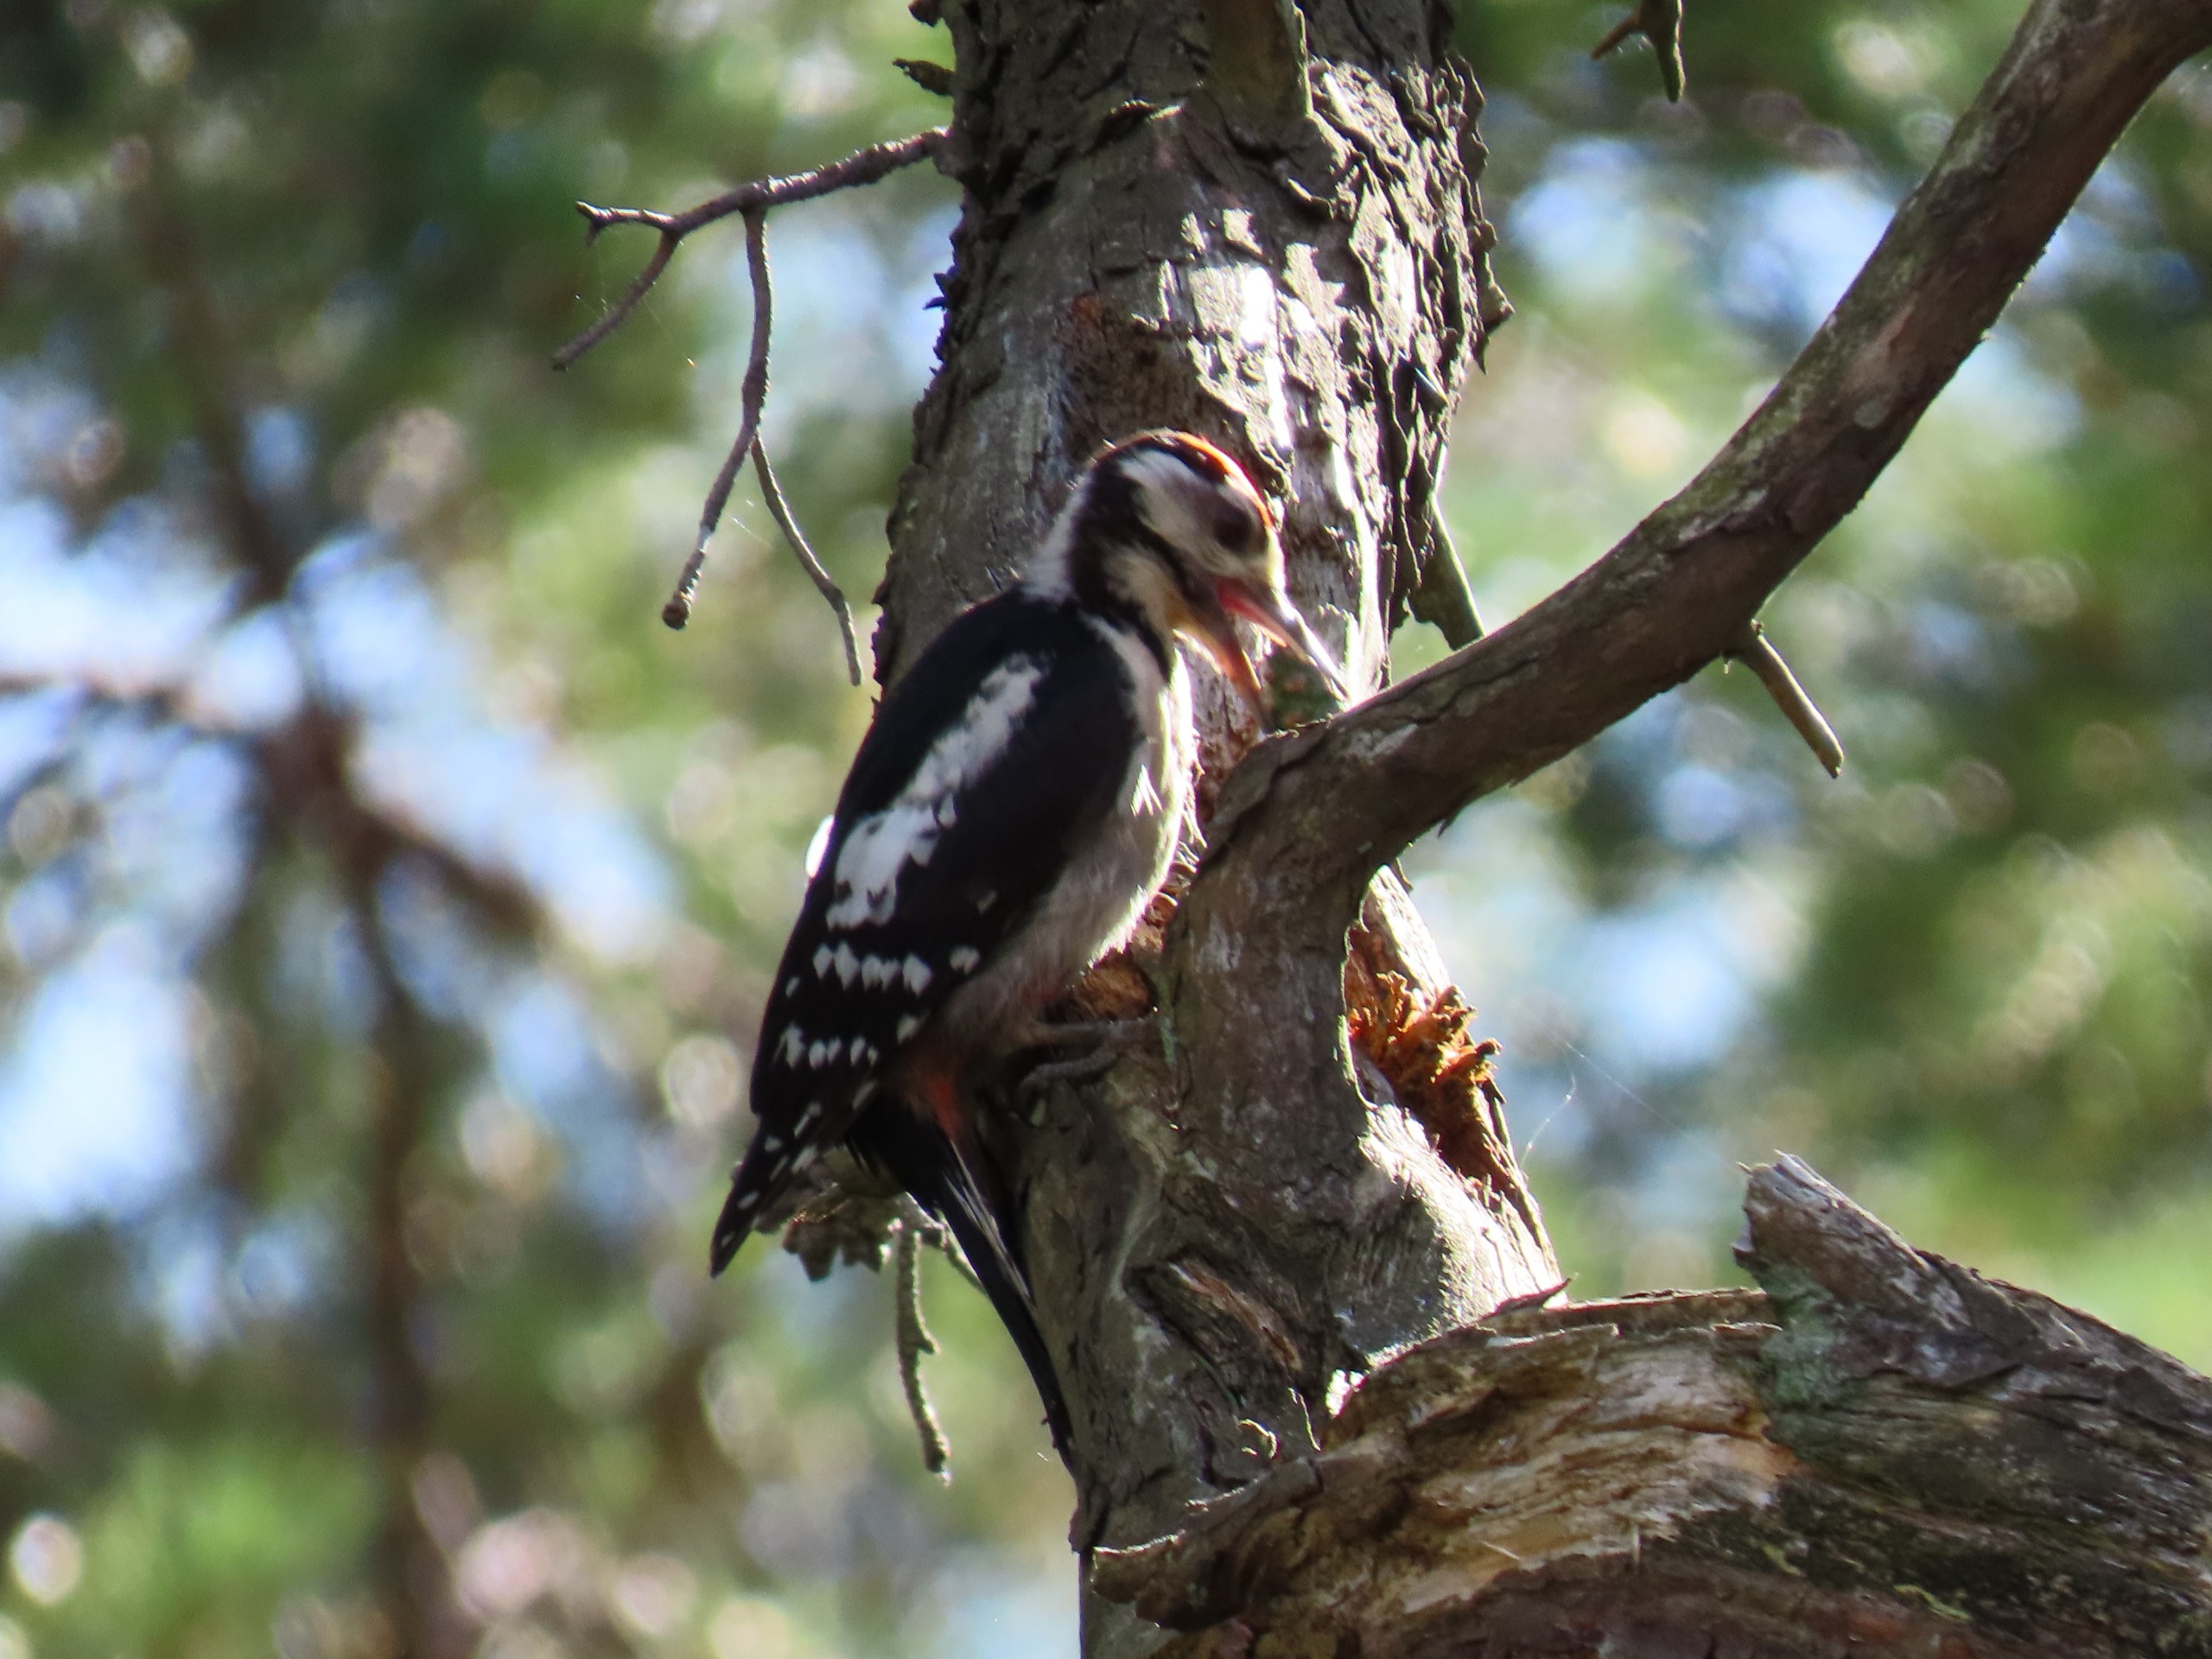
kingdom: Animalia
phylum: Chordata
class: Aves
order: Piciformes
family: Picidae
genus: Dendrocopos
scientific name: Dendrocopos major
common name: Stor flagspætte
